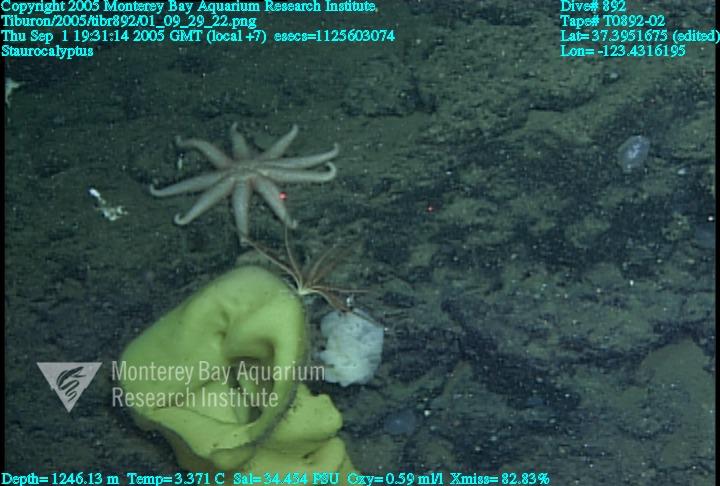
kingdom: Animalia
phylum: Porifera
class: Hexactinellida
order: Lyssacinosida
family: Rossellidae
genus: Staurocalyptus
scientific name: Staurocalyptus
